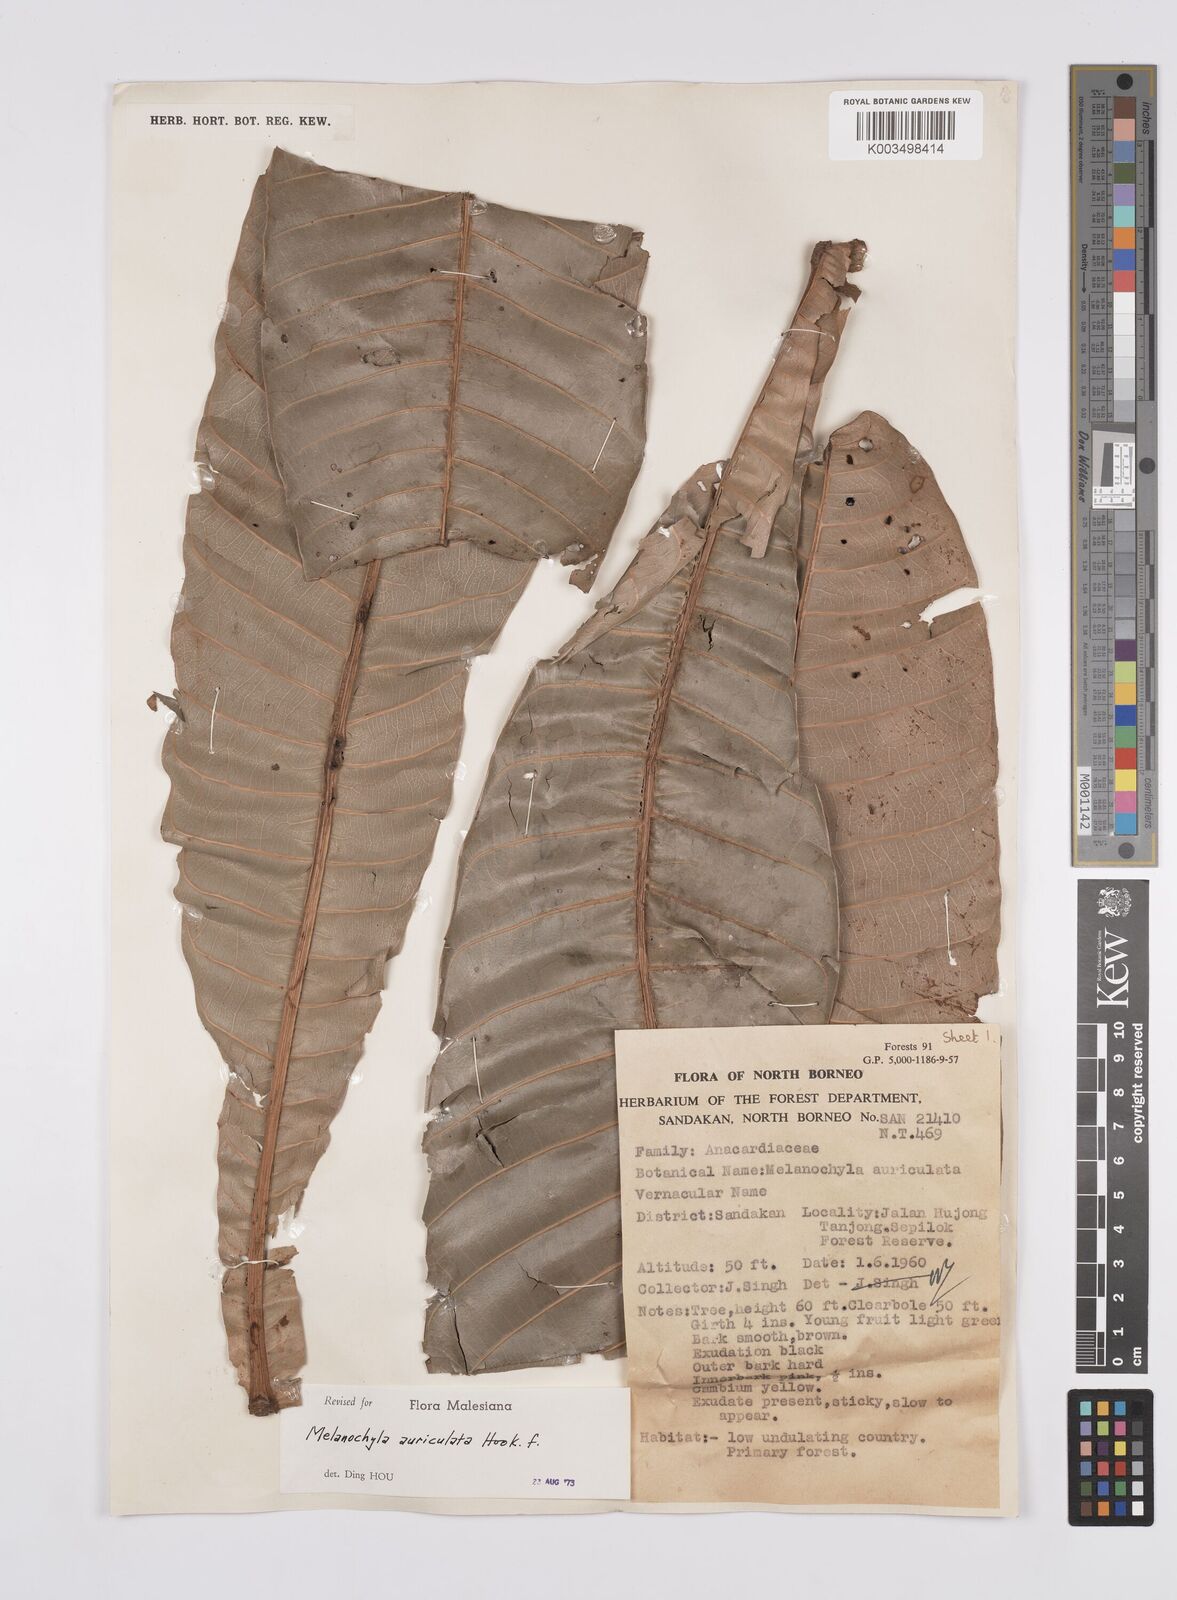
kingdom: Plantae
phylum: Tracheophyta
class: Magnoliopsida
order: Sapindales
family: Anacardiaceae
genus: Melanochyla
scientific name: Melanochyla auriculata
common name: Swamp rengas
